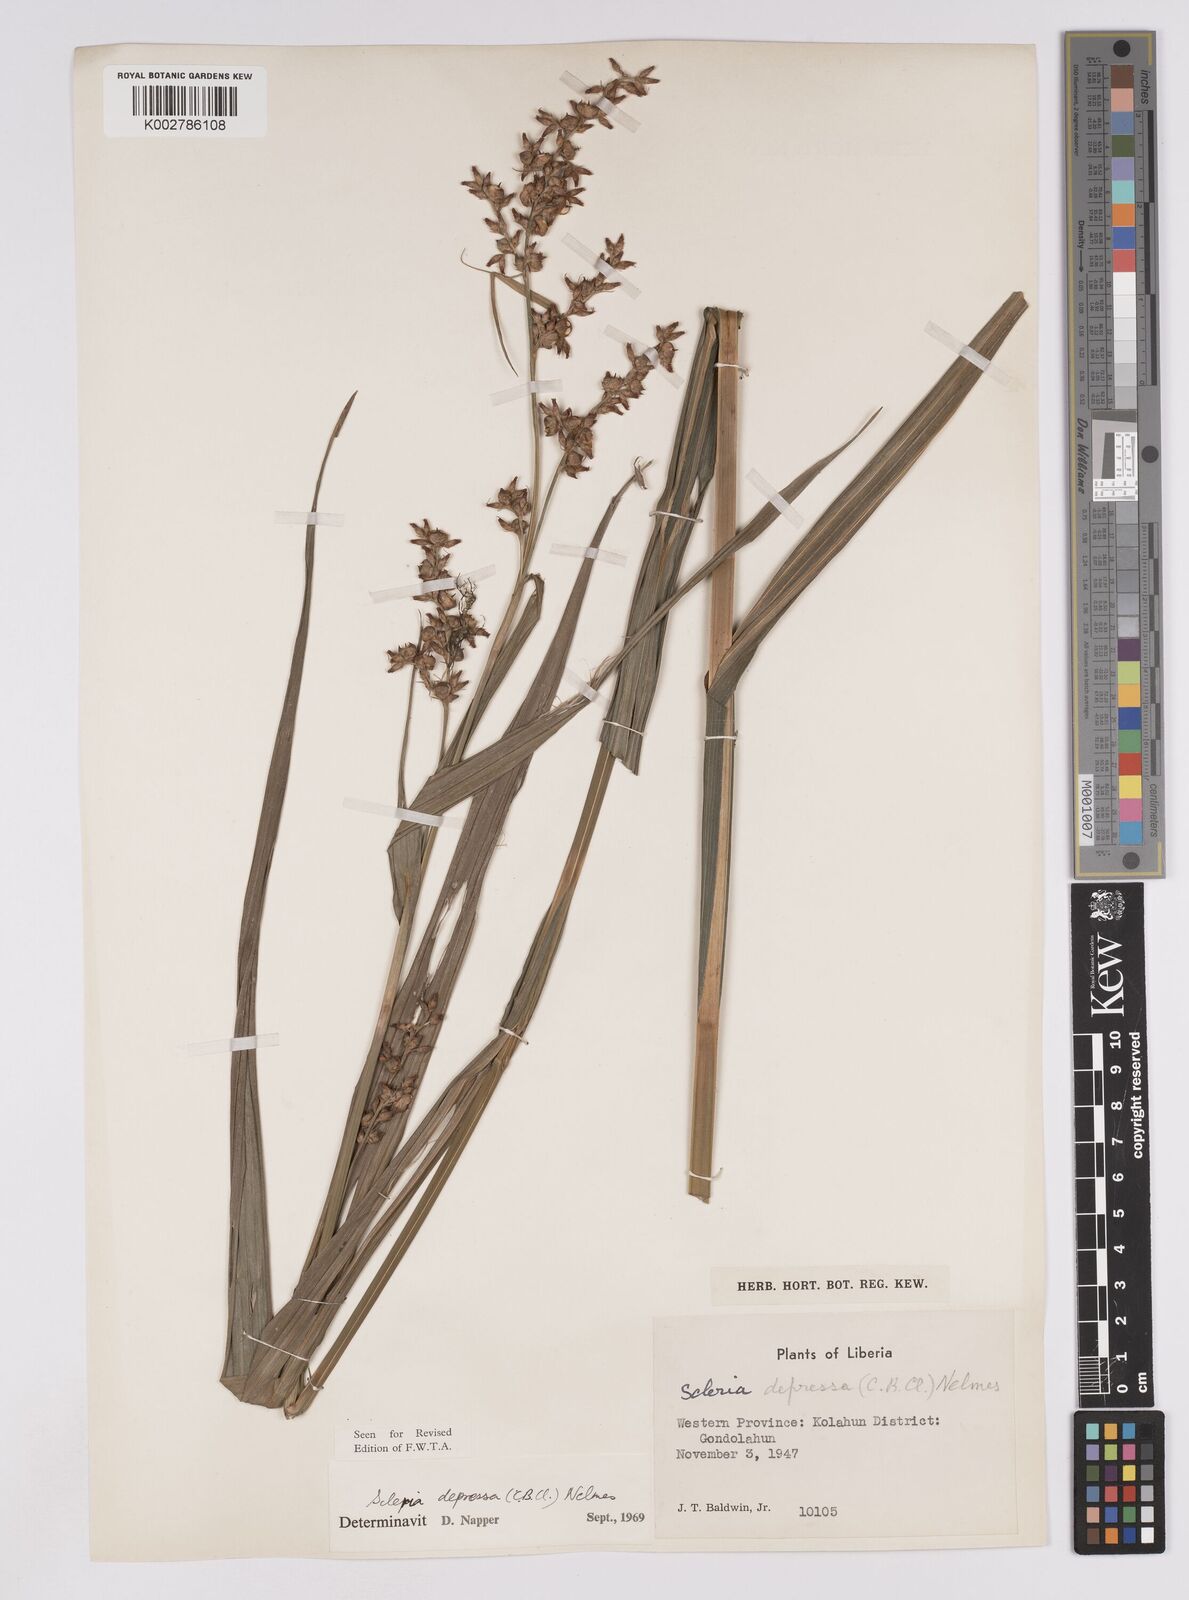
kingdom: Plantae
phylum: Tracheophyta
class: Liliopsida
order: Poales
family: Cyperaceae
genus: Scleria
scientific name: Scleria depressa
